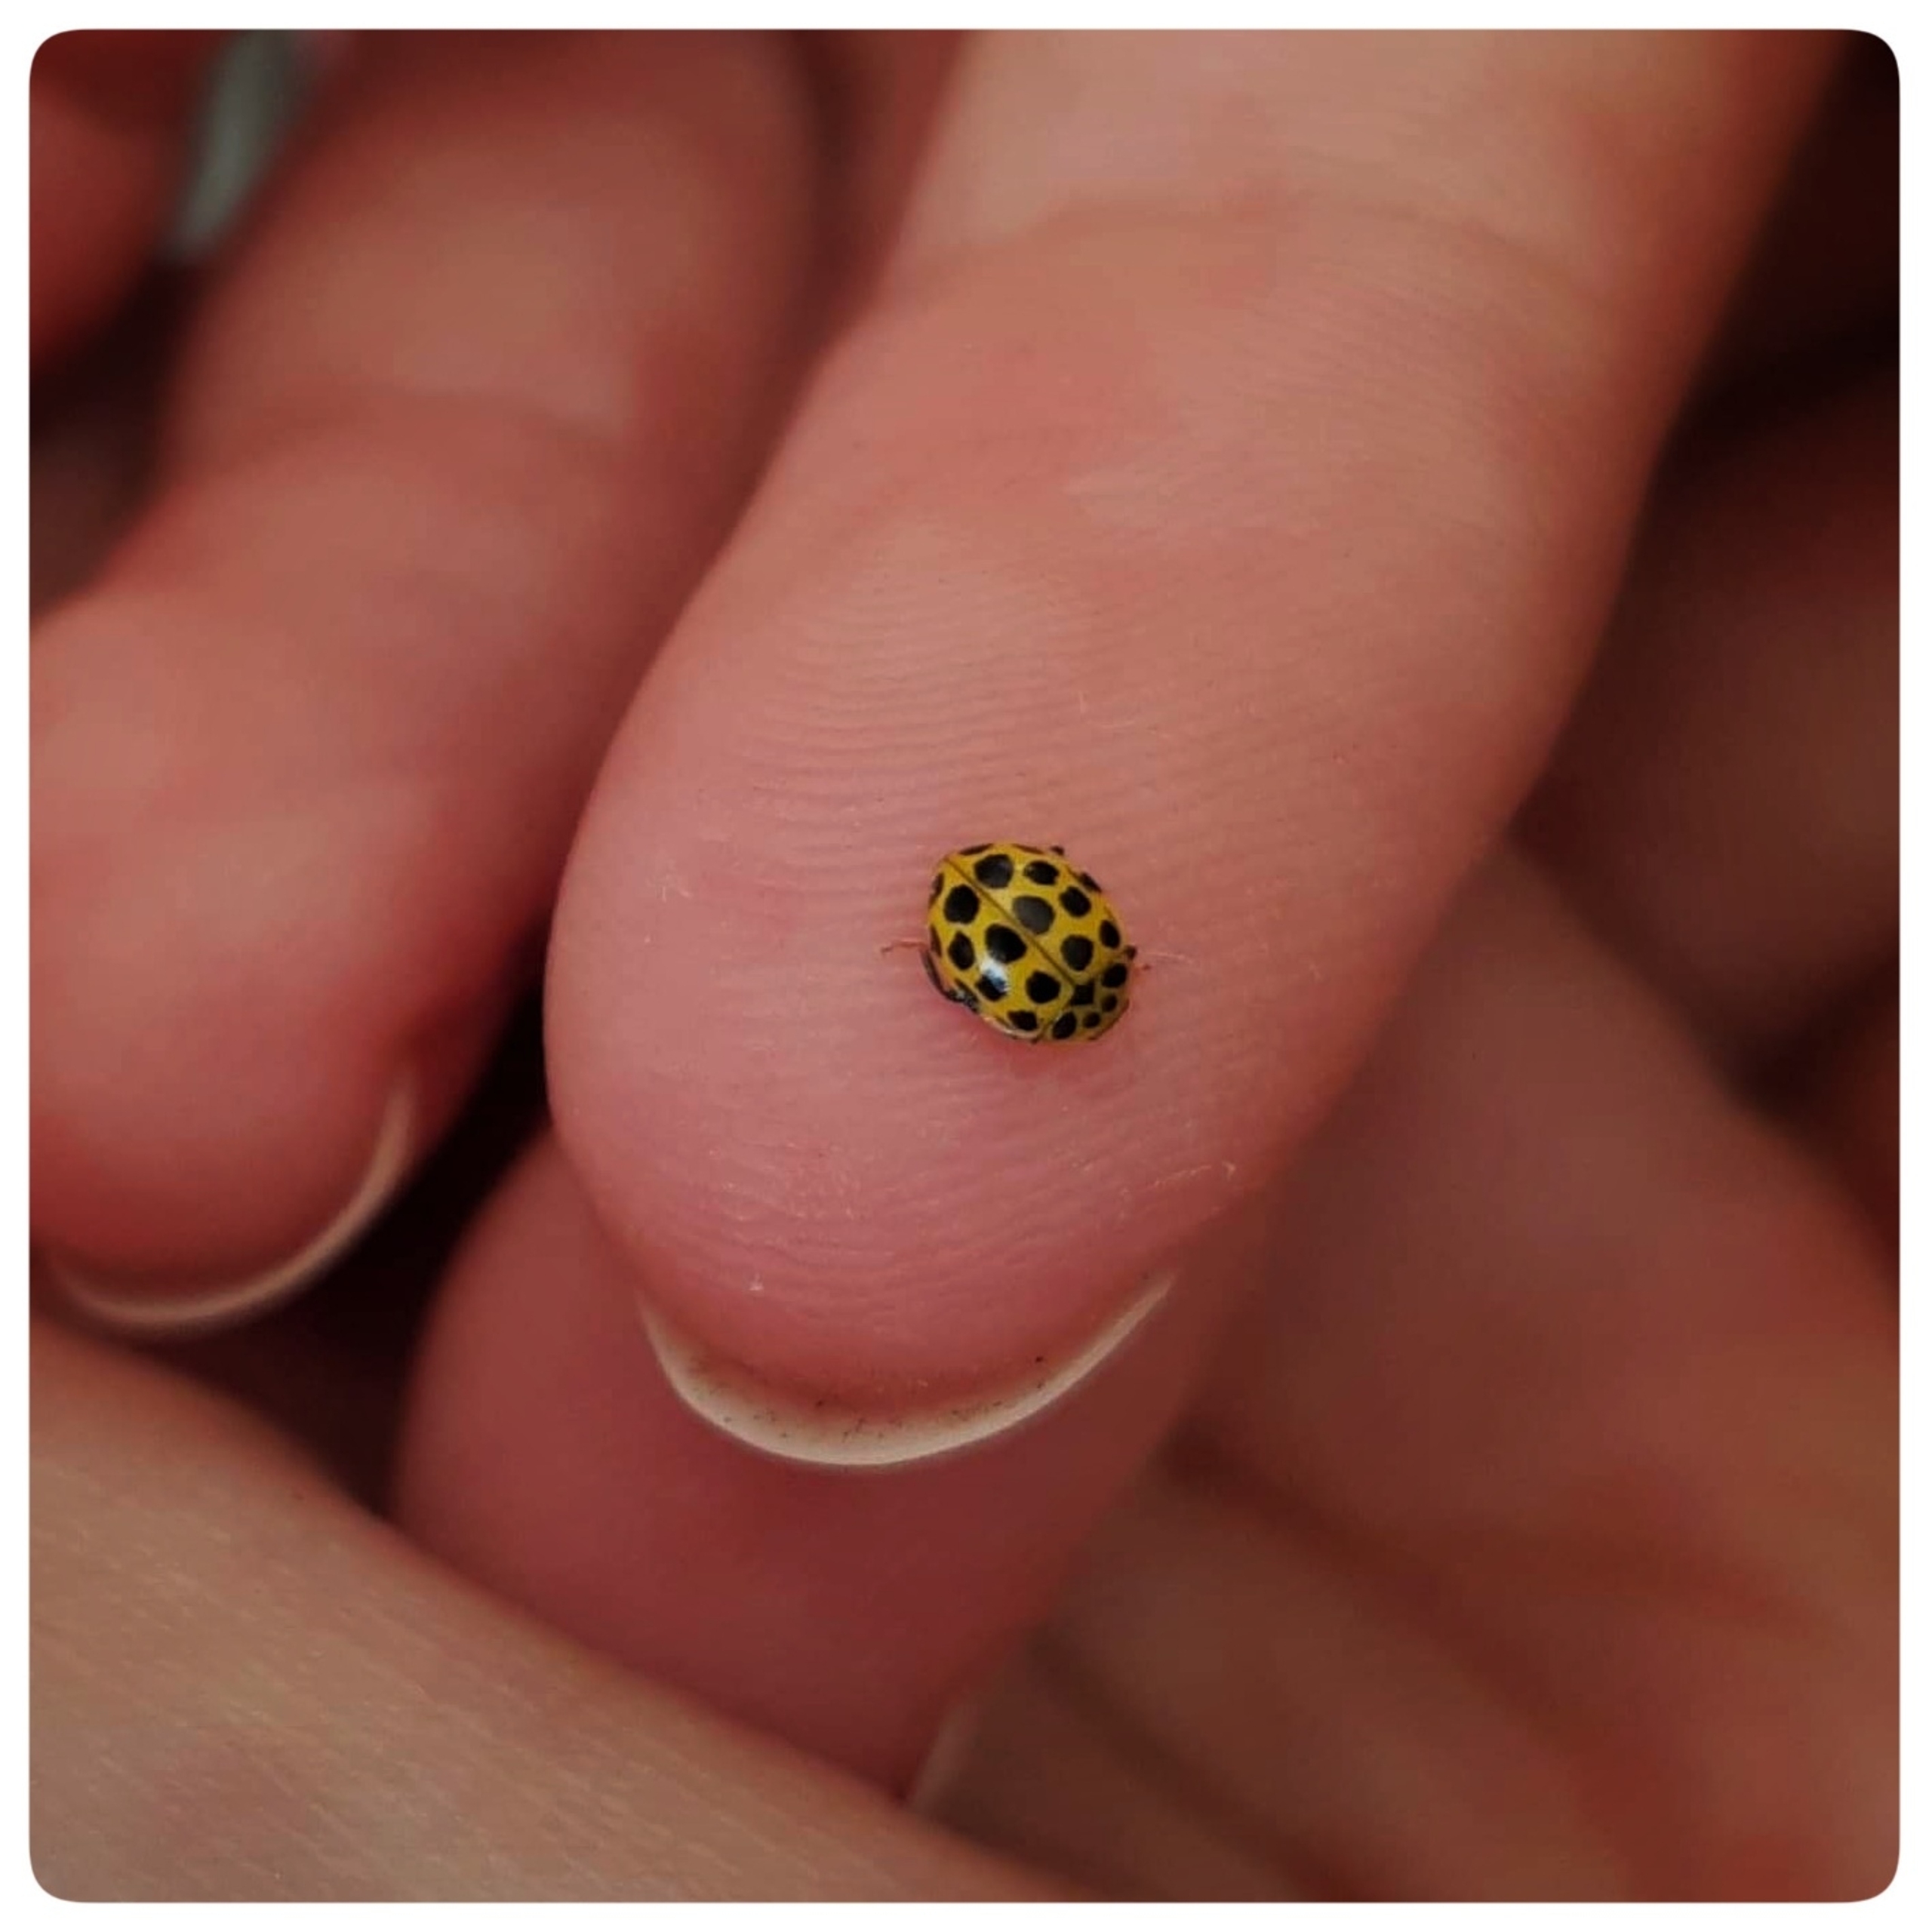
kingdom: Animalia
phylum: Arthropoda
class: Insecta
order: Coleoptera
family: Coccinellidae
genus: Psyllobora
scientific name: Psyllobora vigintiduopunctata
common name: Toogtyveplettet mariehøne
